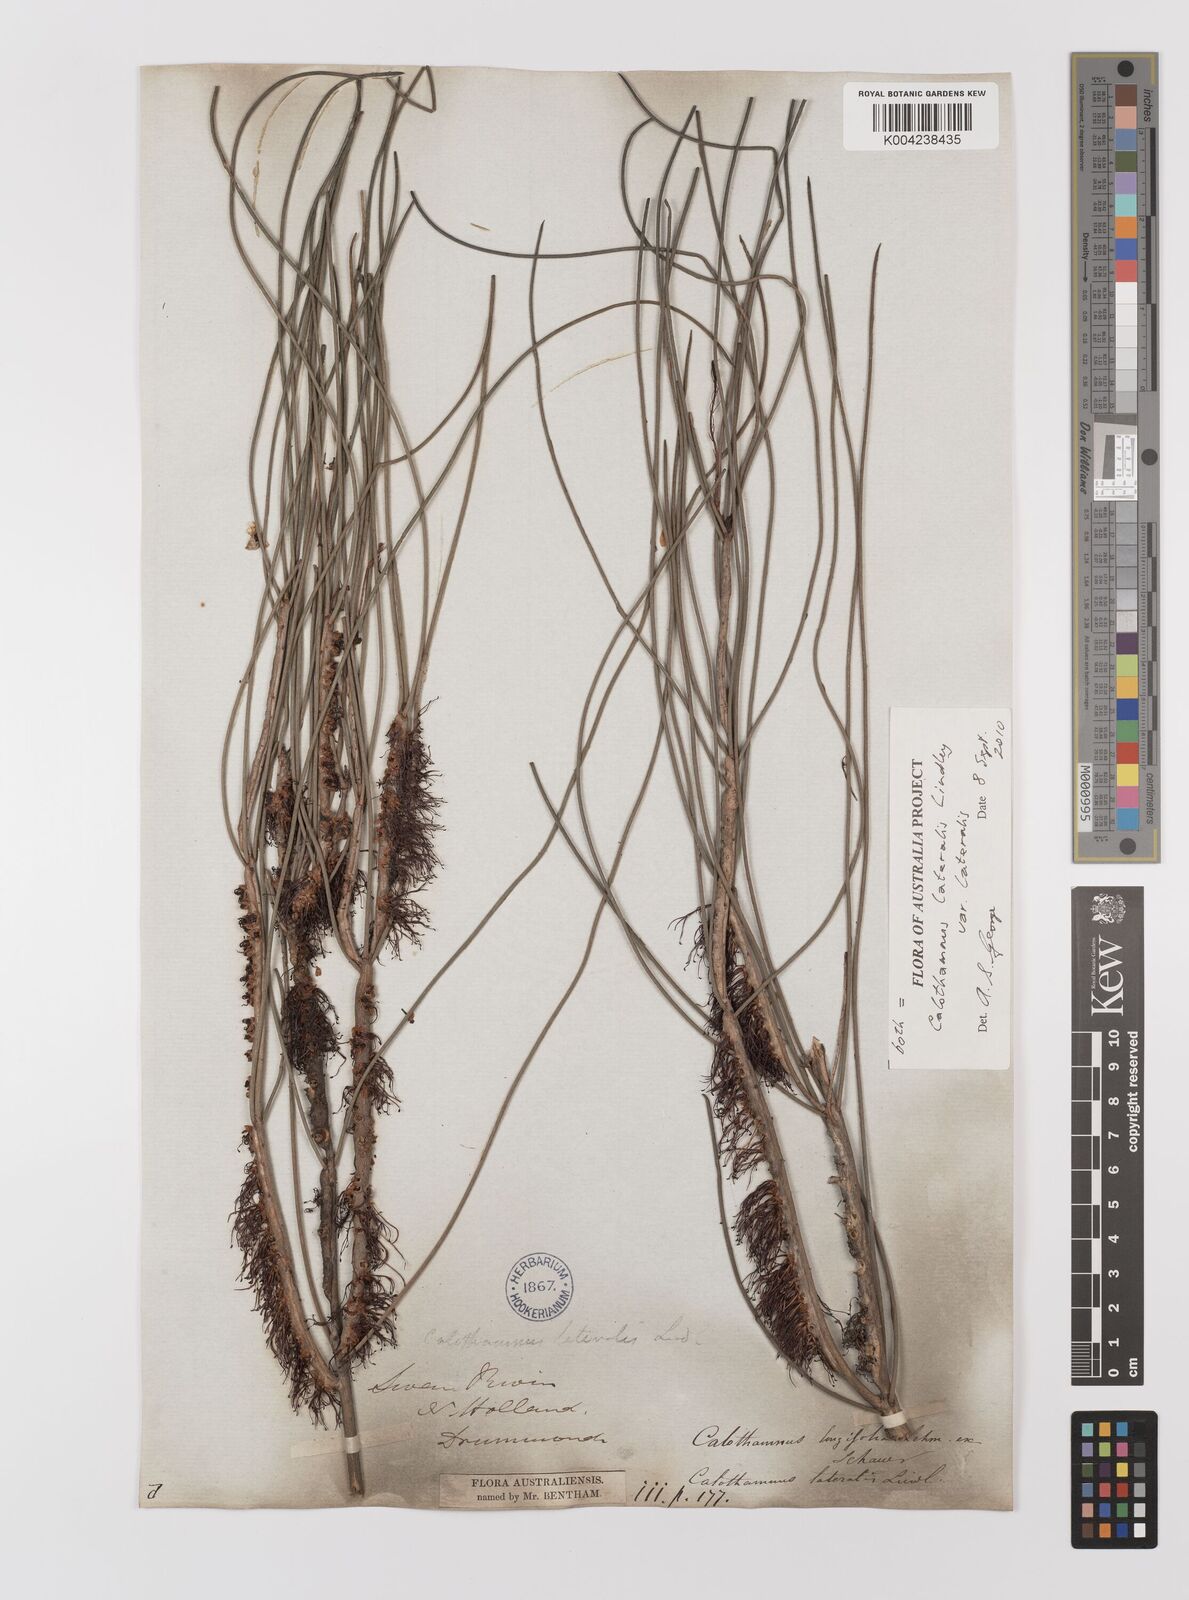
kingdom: Plantae
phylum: Tracheophyta
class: Magnoliopsida
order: Myrtales
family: Myrtaceae
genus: Melaleuca
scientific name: Melaleuca lateralis
